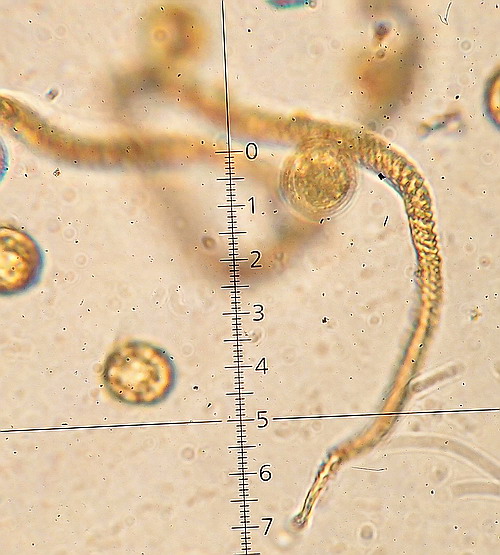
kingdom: Protozoa
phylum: Mycetozoa
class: Myxomycetes
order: Trichiales
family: Arcyriaceae
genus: Hemitrichia
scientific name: Hemitrichia decipiens
